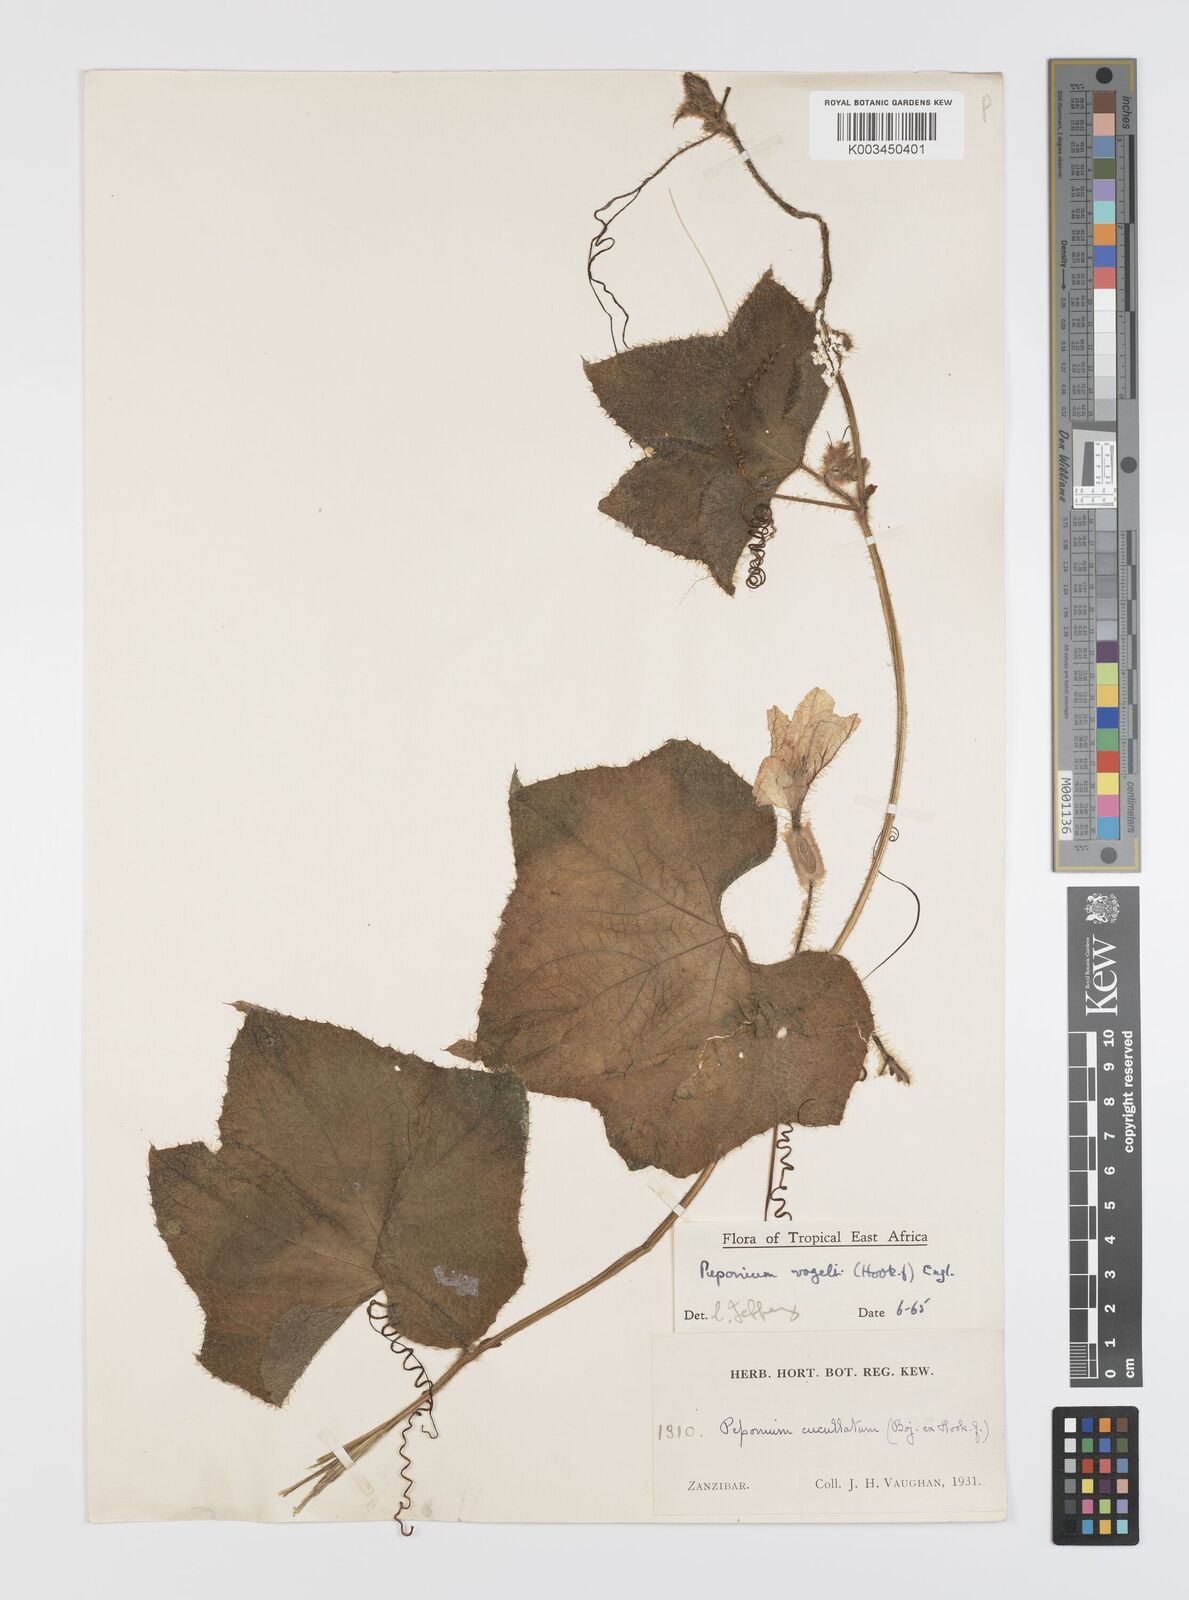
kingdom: Plantae
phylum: Tracheophyta
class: Magnoliopsida
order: Cucurbitales
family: Cucurbitaceae
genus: Peponium
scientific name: Peponium vogelii
